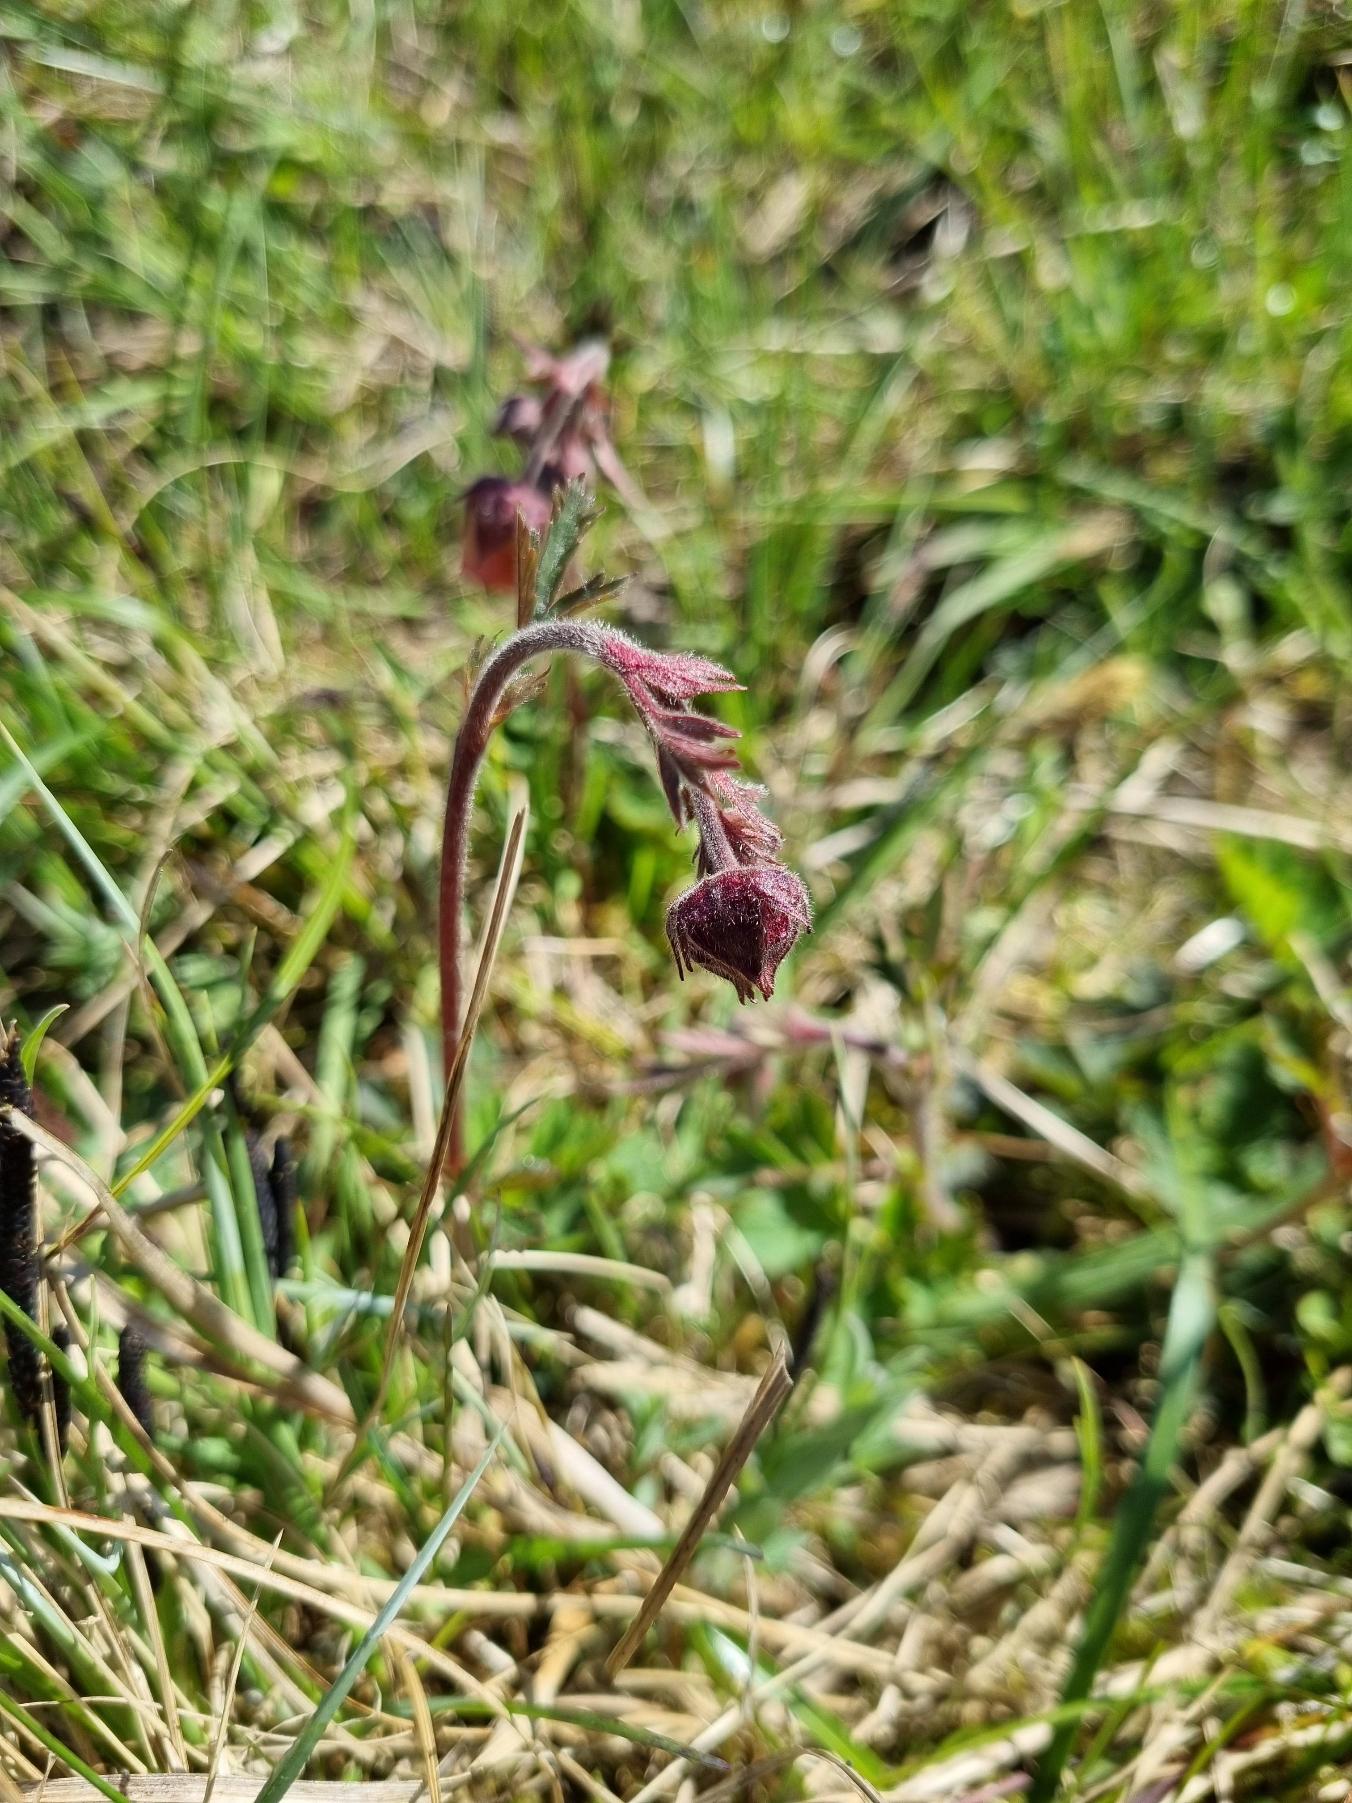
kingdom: Plantae
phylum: Tracheophyta
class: Magnoliopsida
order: Rosales
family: Rosaceae
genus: Geum
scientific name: Geum rivale
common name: Eng-nellikerod
